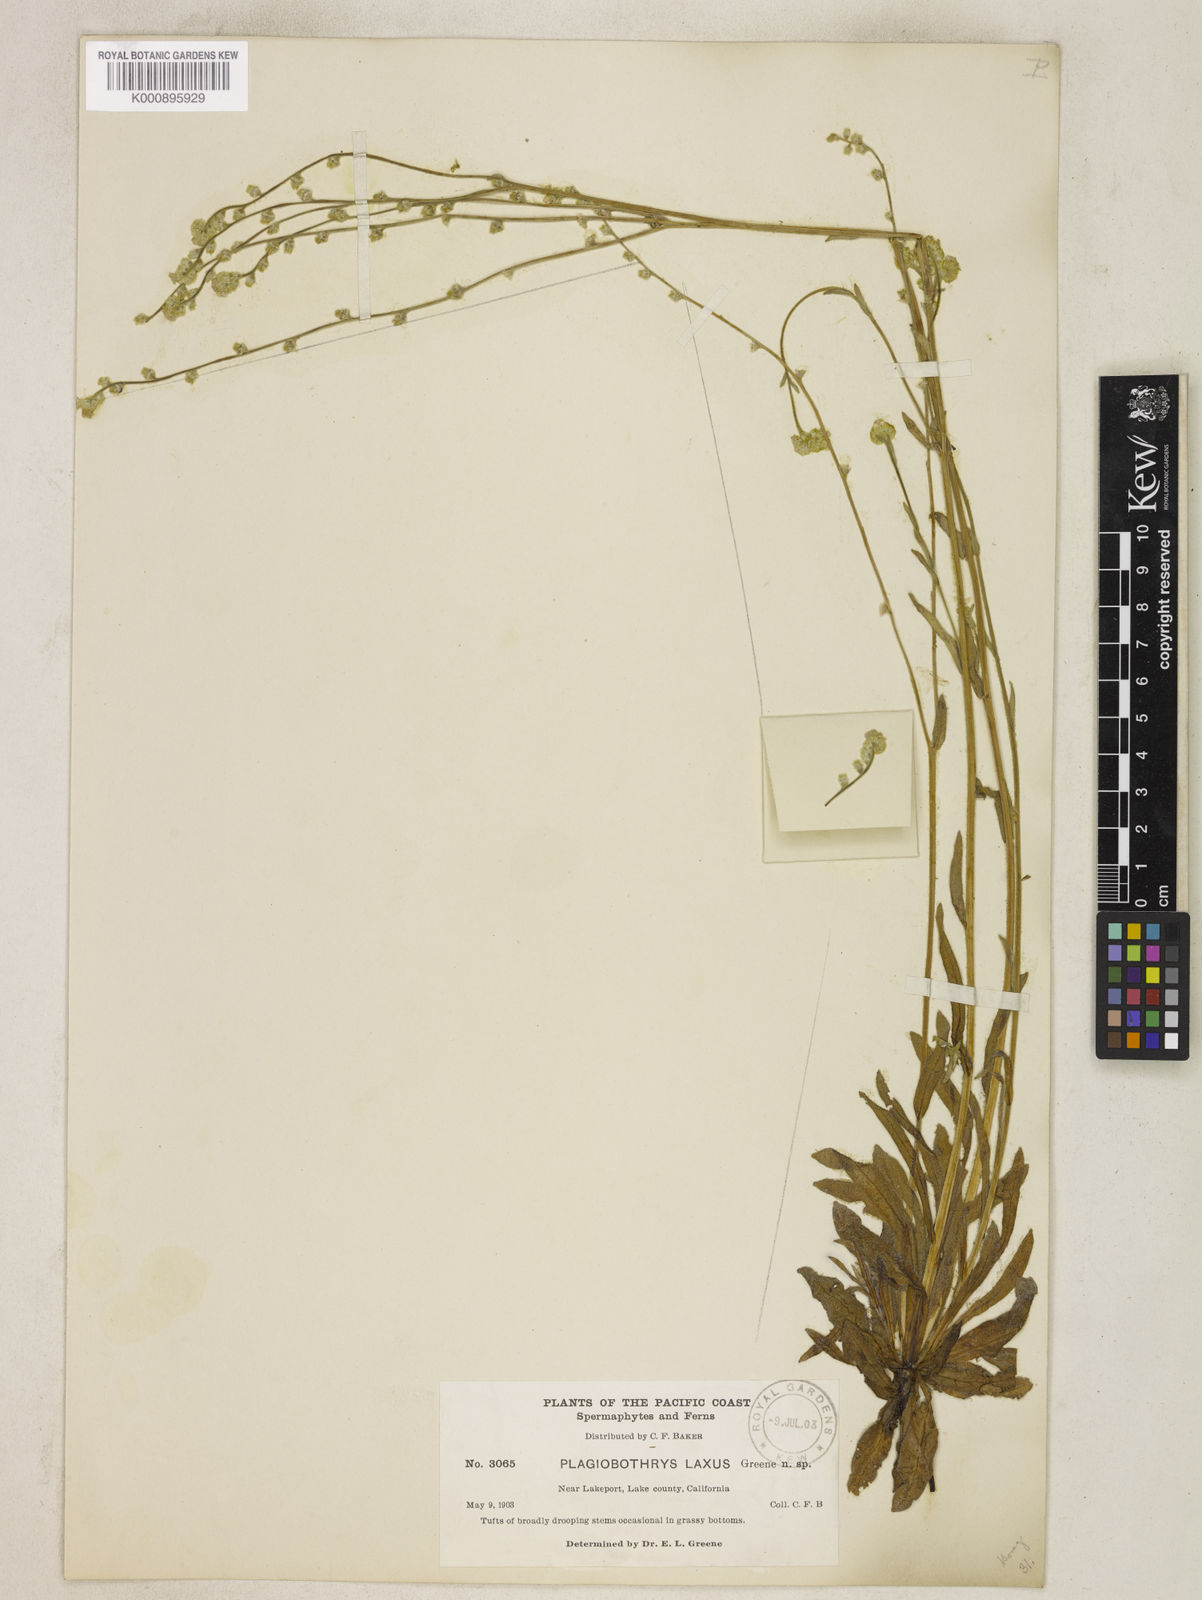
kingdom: Plantae
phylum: Tracheophyta
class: Magnoliopsida
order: Boraginales
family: Boraginaceae
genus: Plagiobothrys
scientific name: Plagiobothrys
